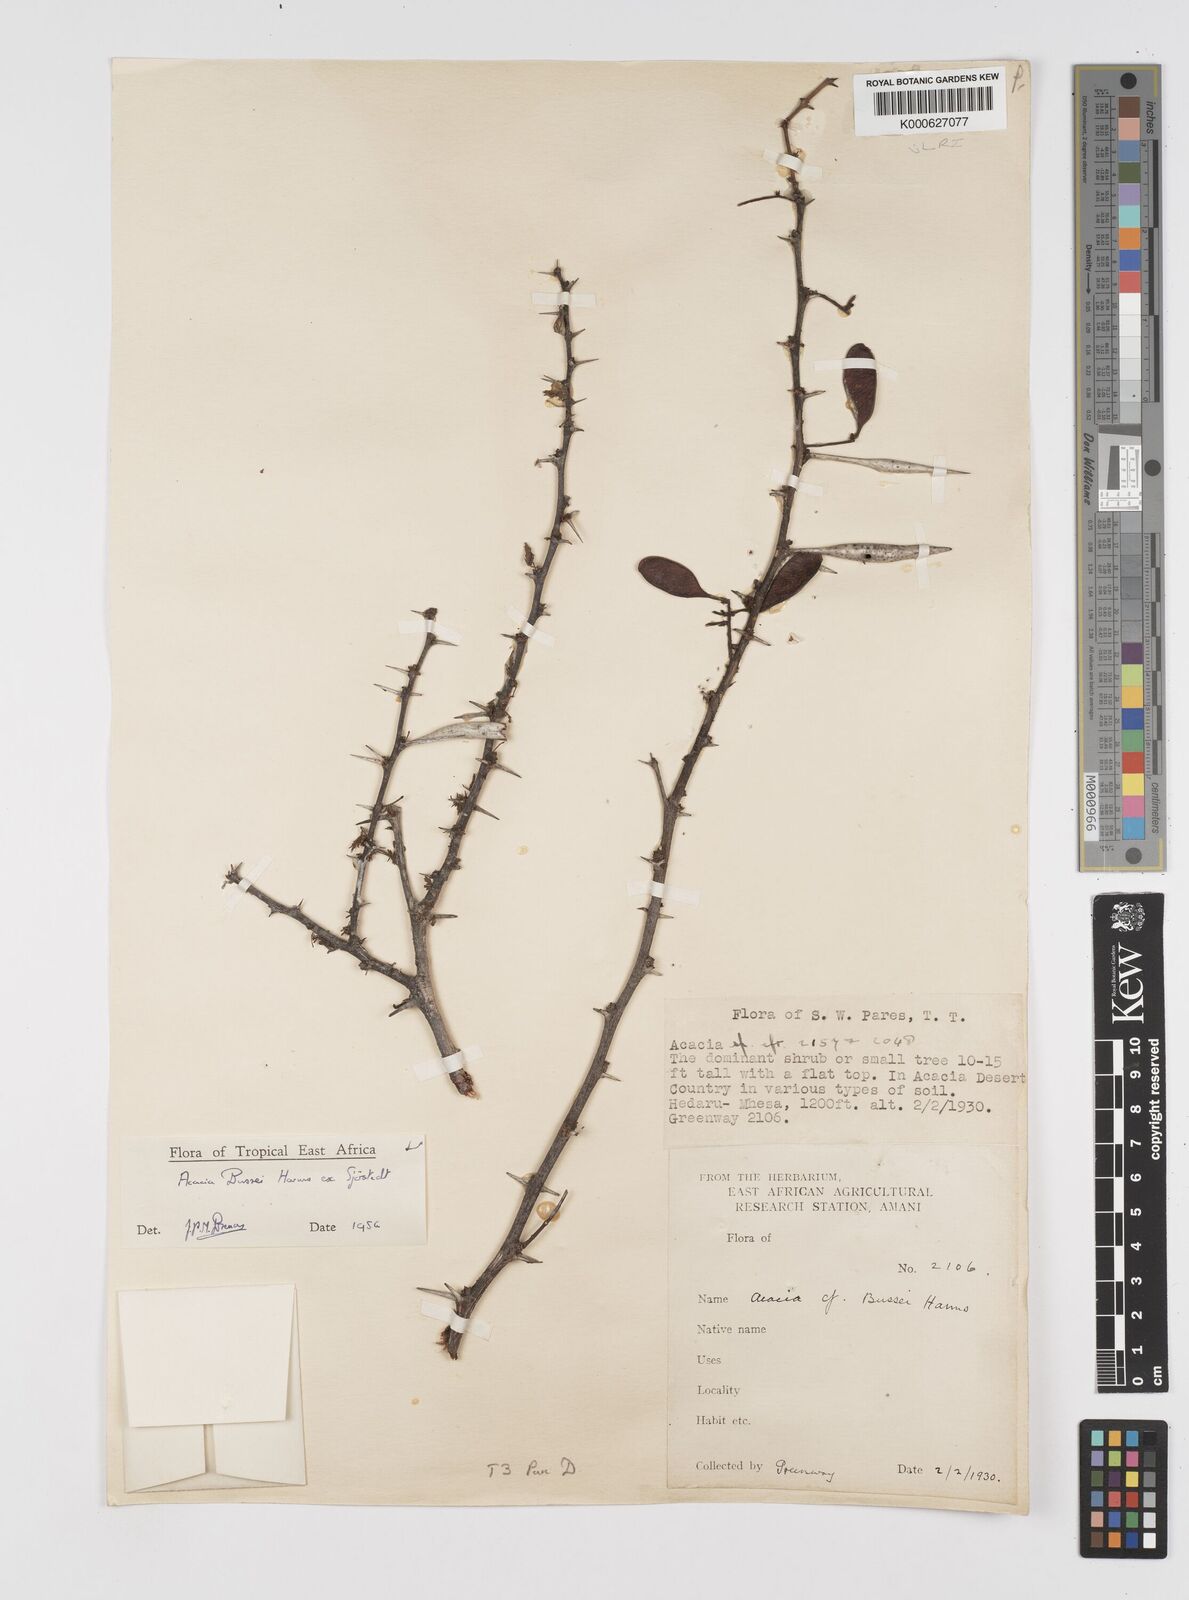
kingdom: Plantae
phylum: Tracheophyta
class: Magnoliopsida
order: Fabales
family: Fabaceae
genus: Vachellia
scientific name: Vachellia bussei
